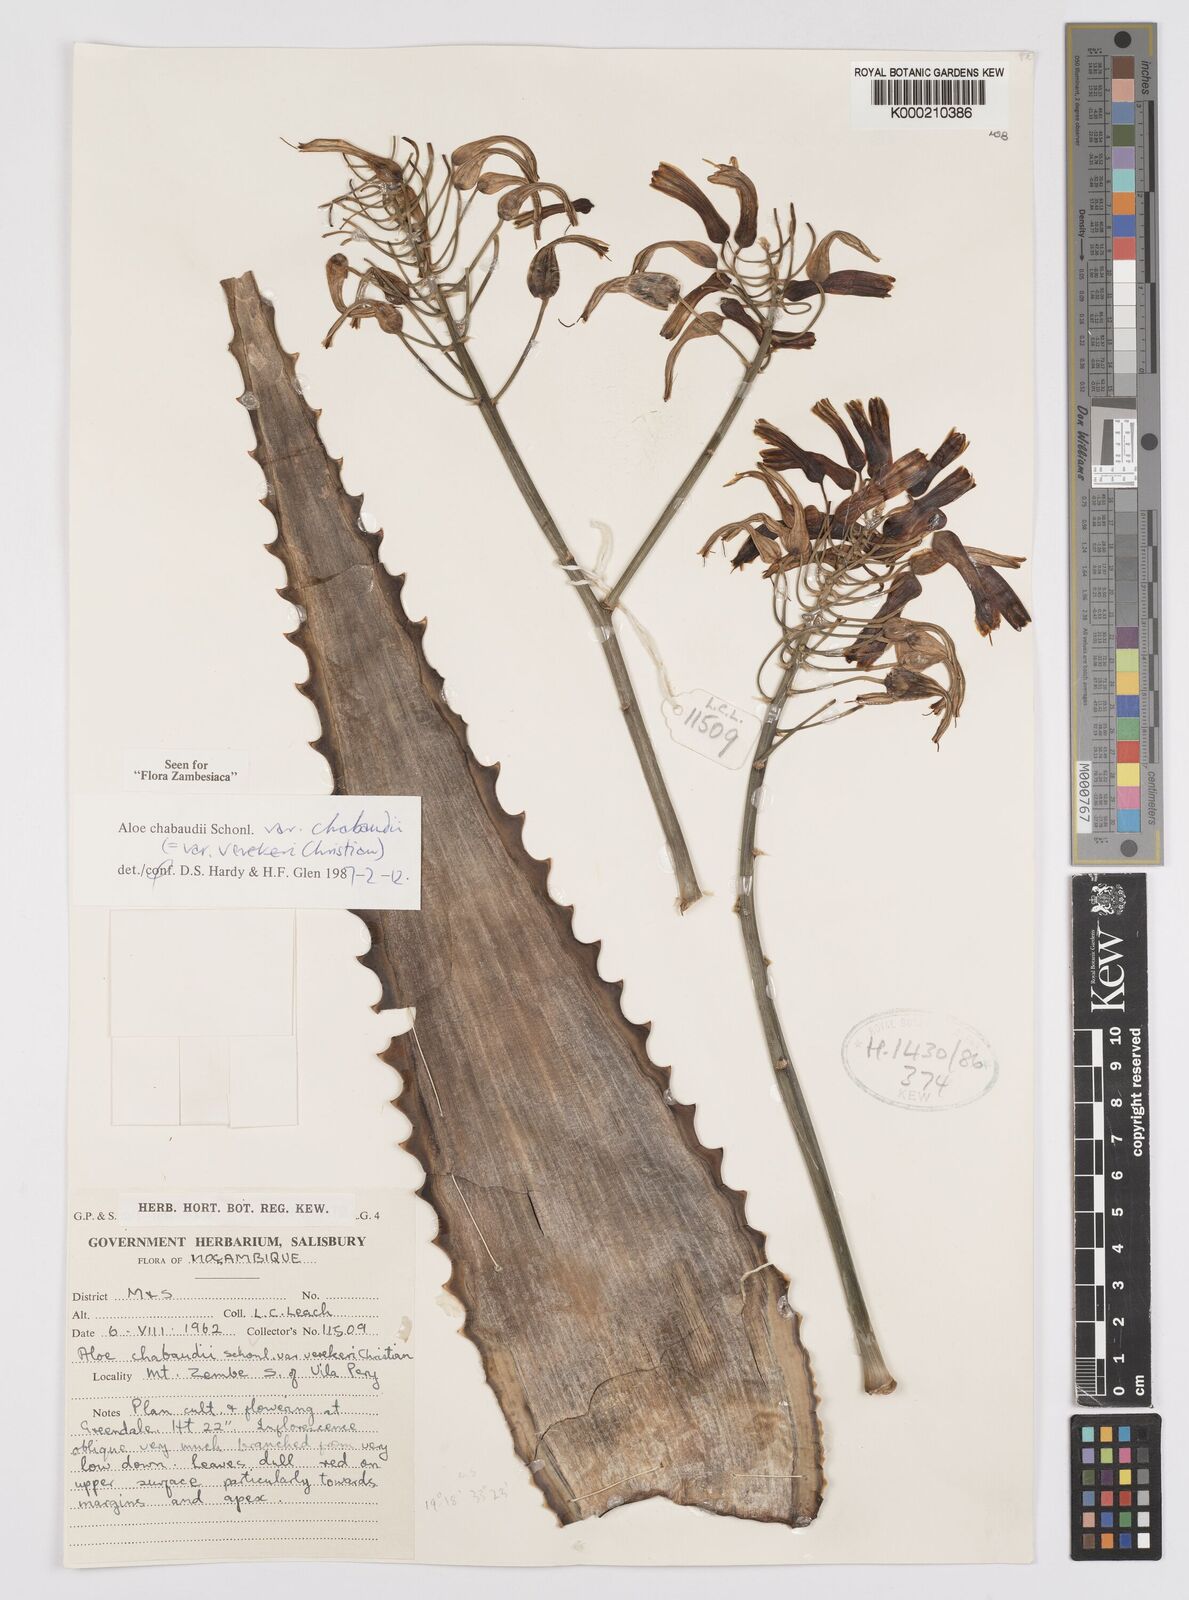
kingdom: Plantae
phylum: Tracheophyta
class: Liliopsida
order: Asparagales
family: Asphodelaceae
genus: Aloe
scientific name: Aloe chabaudii
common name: Chabaud's aloe
